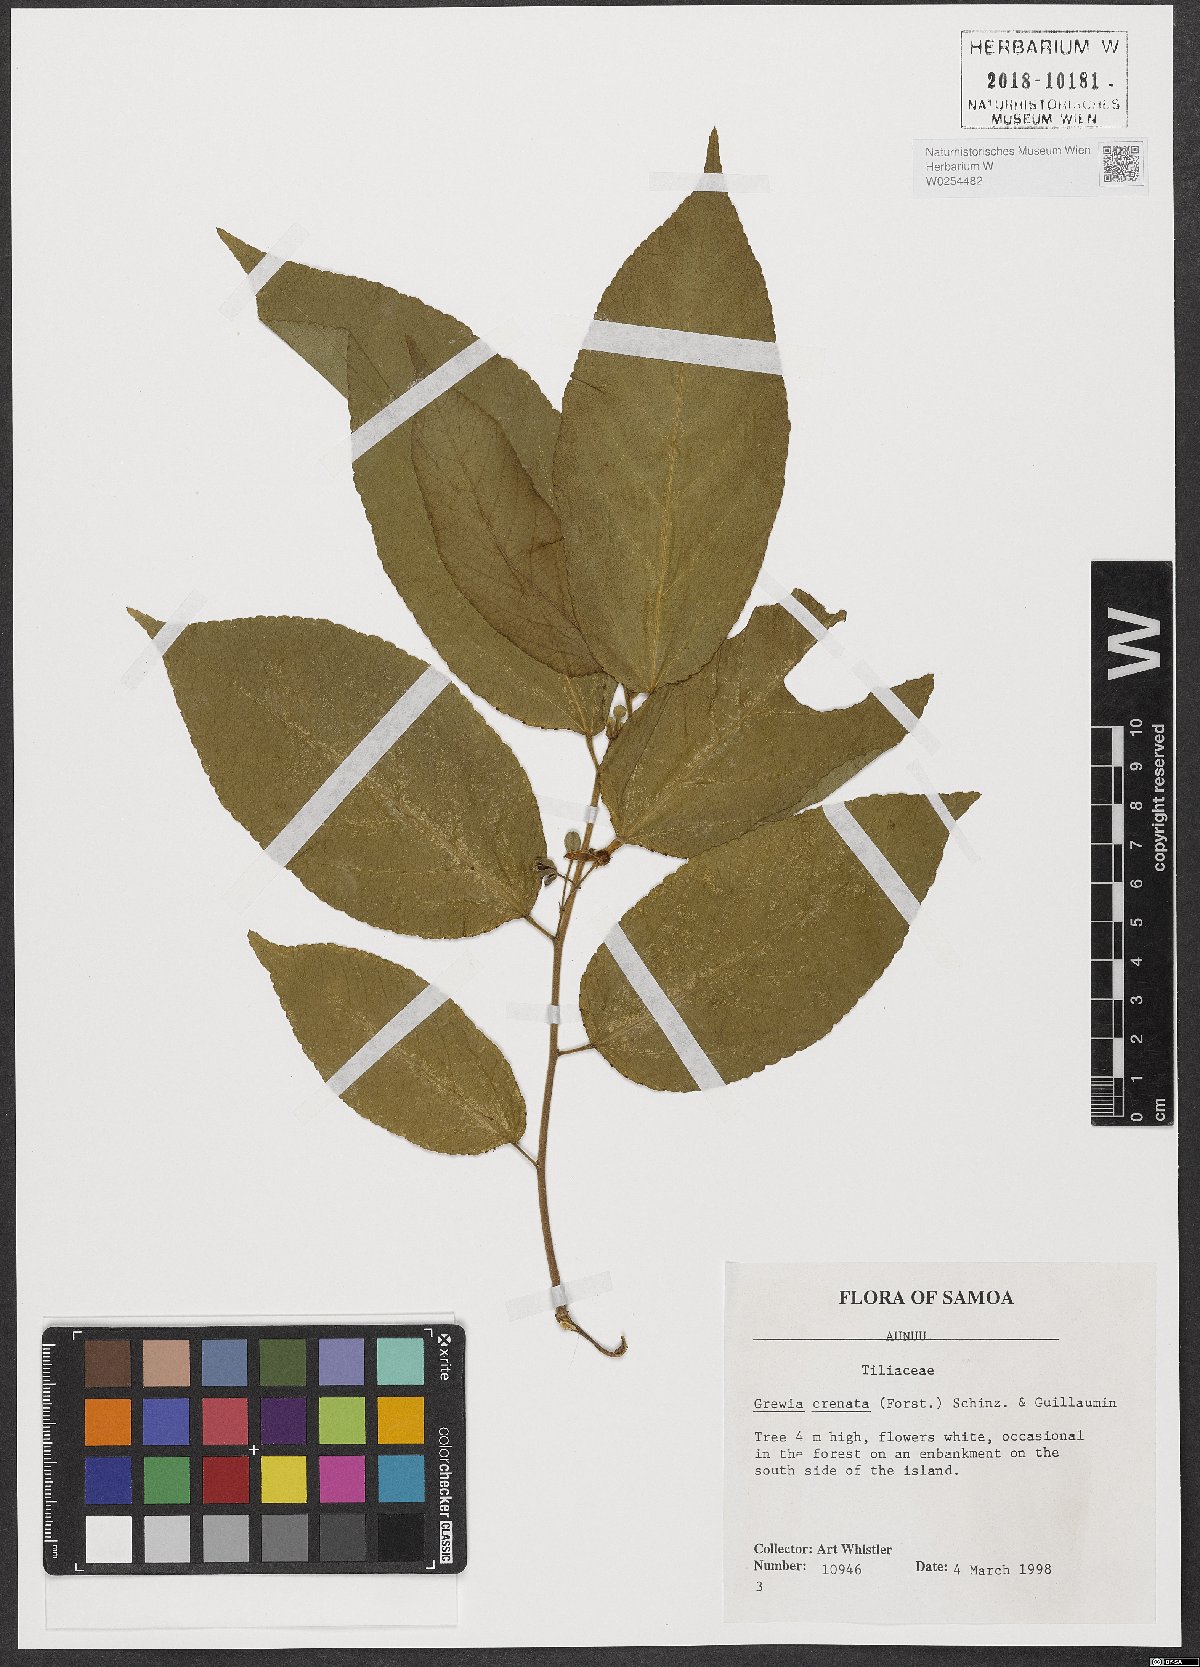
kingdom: Plantae
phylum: Tracheophyta
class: Magnoliopsida
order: Malvales
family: Malvaceae
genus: Grewia
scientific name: Grewia crenata
